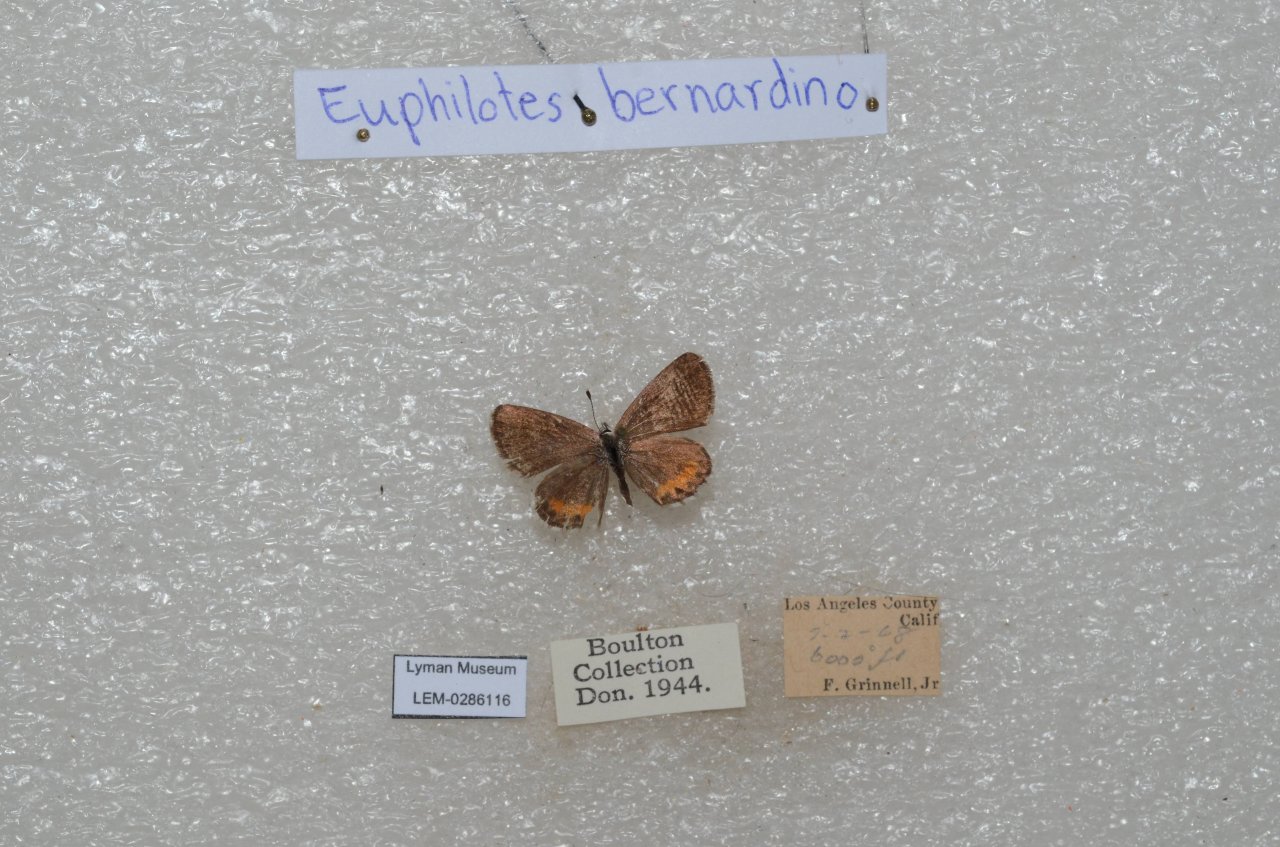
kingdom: Animalia
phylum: Arthropoda
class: Insecta
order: Lepidoptera
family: Lycaenidae
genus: Euphilotes
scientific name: Euphilotes battoides
